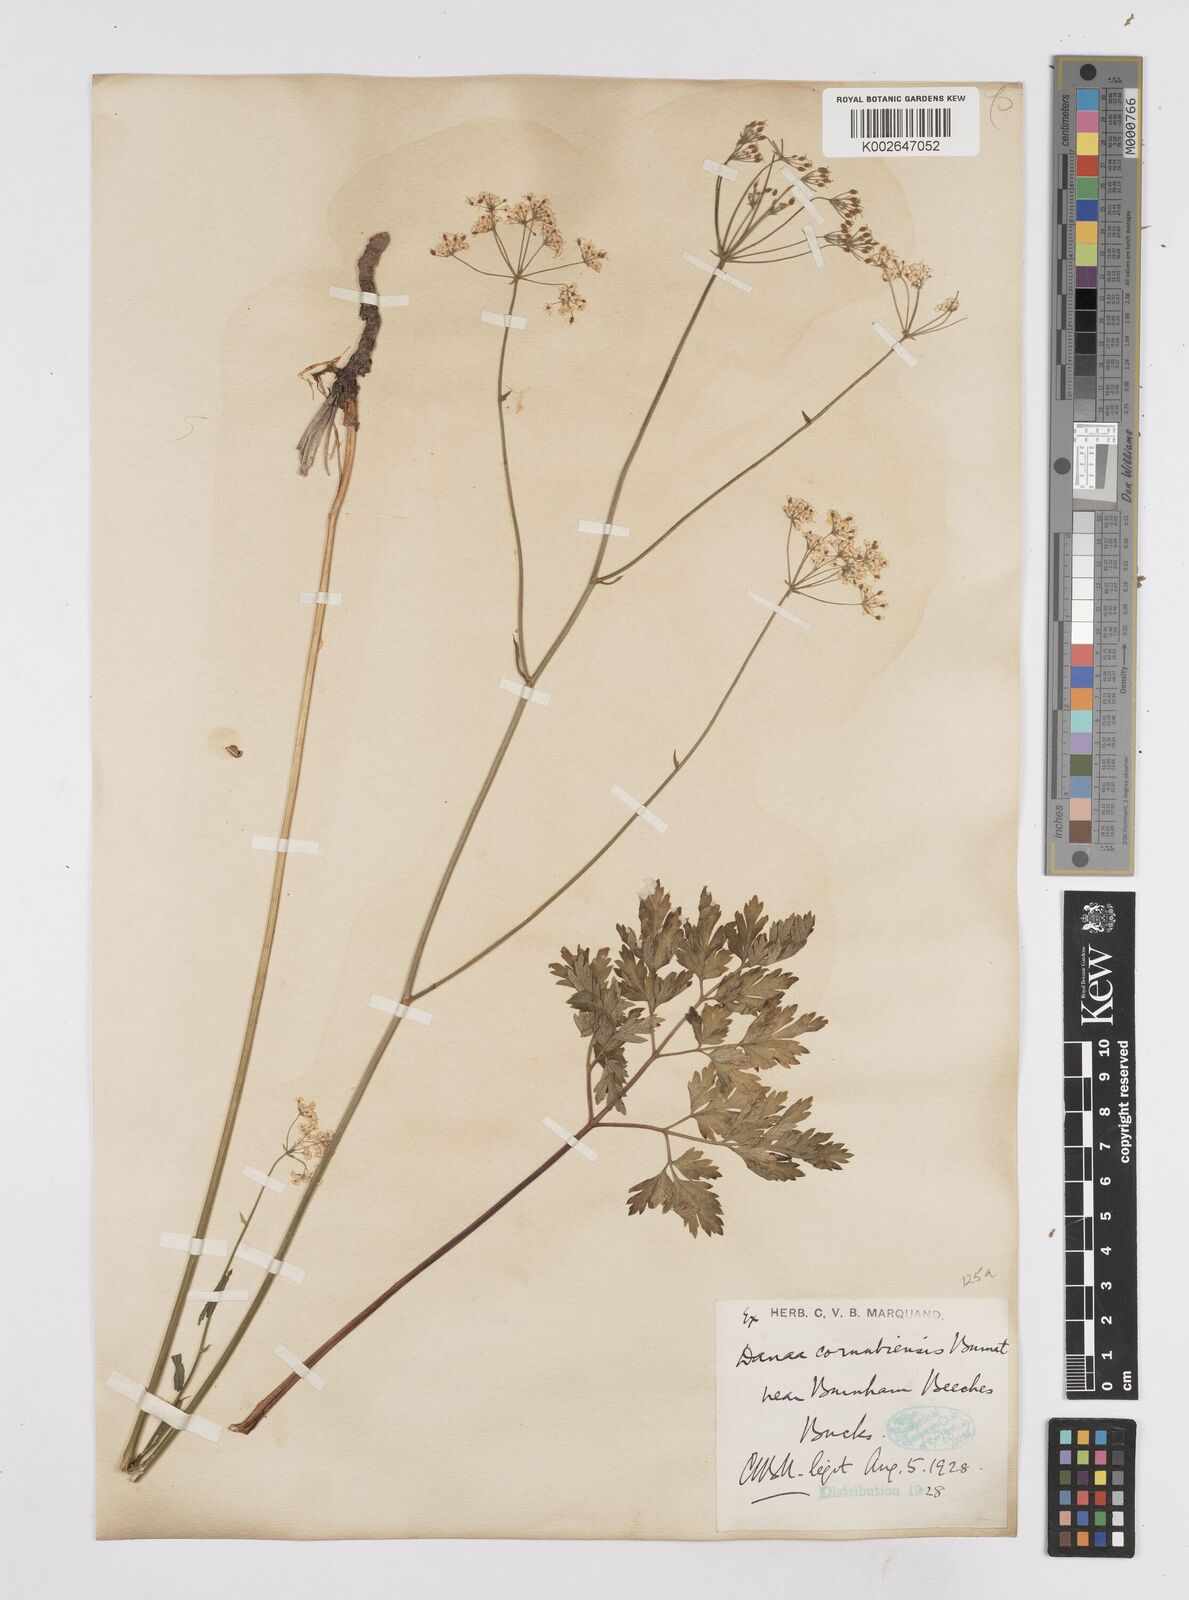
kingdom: Plantae
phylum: Tracheophyta
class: Magnoliopsida
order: Apiales
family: Apiaceae
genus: Physospermum
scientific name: Physospermum cornubiense
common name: Bladderseed
